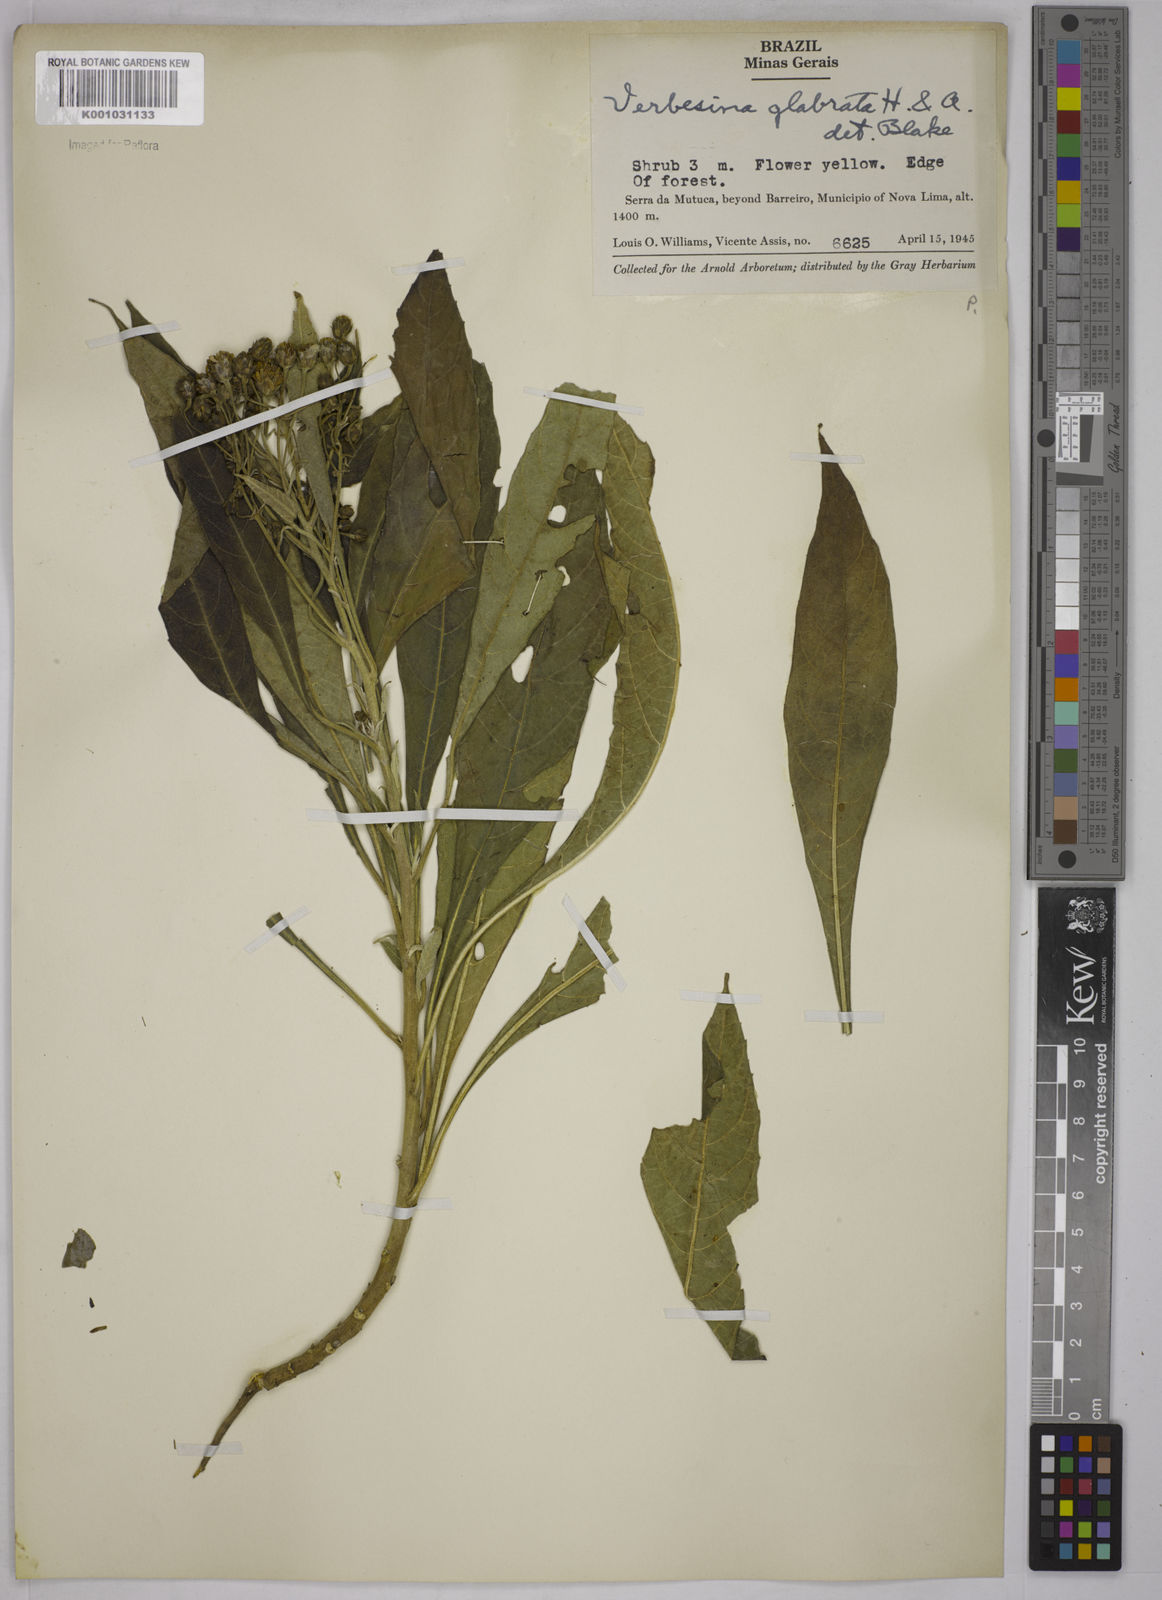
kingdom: Plantae
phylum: Tracheophyta
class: Magnoliopsida
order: Asterales
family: Asteraceae
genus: Verbesina
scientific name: Verbesina glabrata
